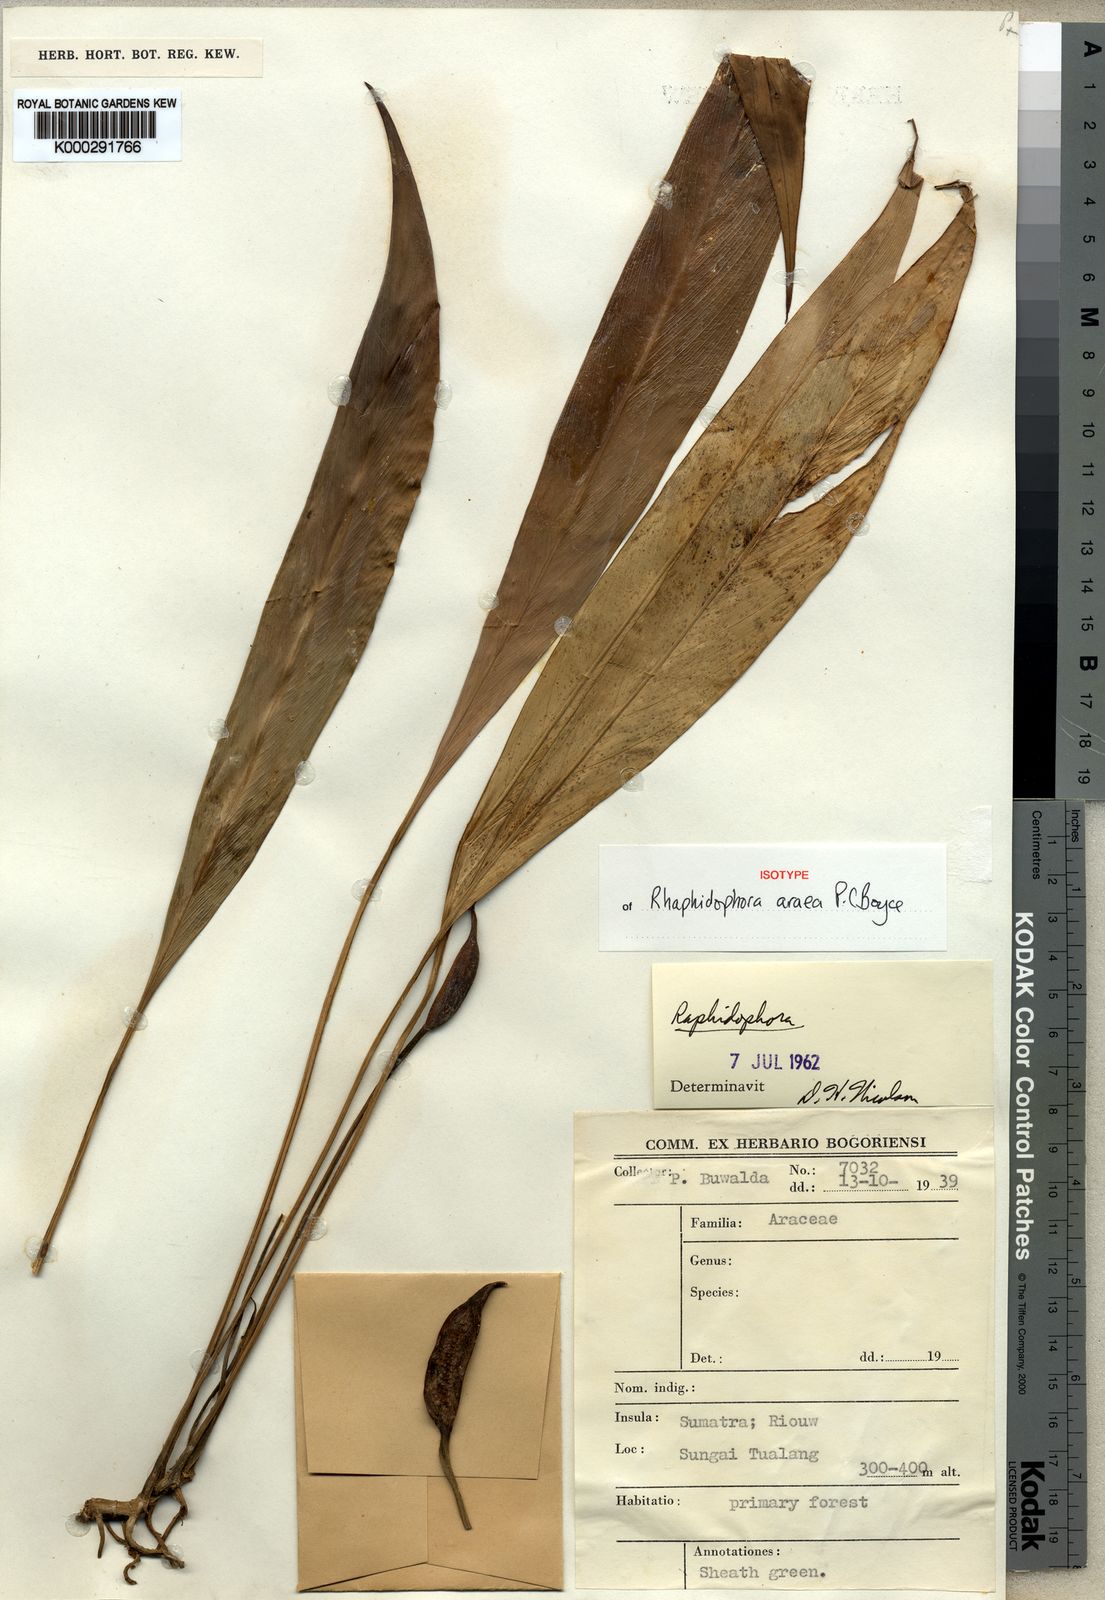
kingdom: Plantae
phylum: Tracheophyta
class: Liliopsida
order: Alismatales
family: Araceae
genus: Rhaphidophora
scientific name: Rhaphidophora
